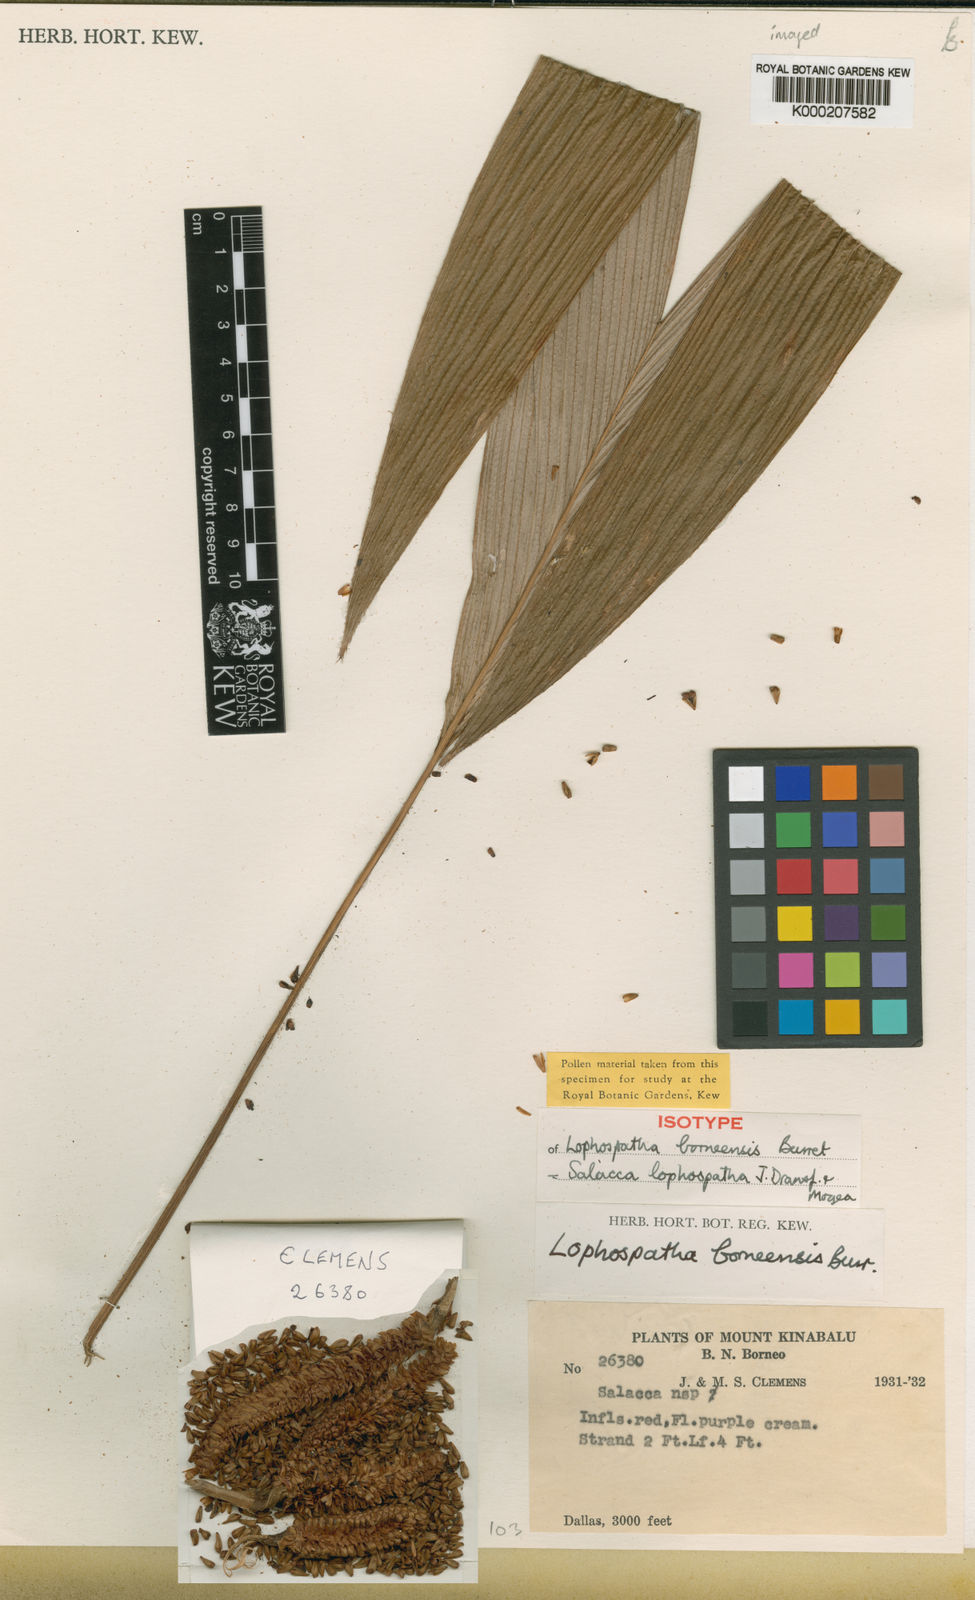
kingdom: Plantae
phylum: Tracheophyta
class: Liliopsida
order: Arecales
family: Arecaceae
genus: Salacca
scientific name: Salacca lophospatha
